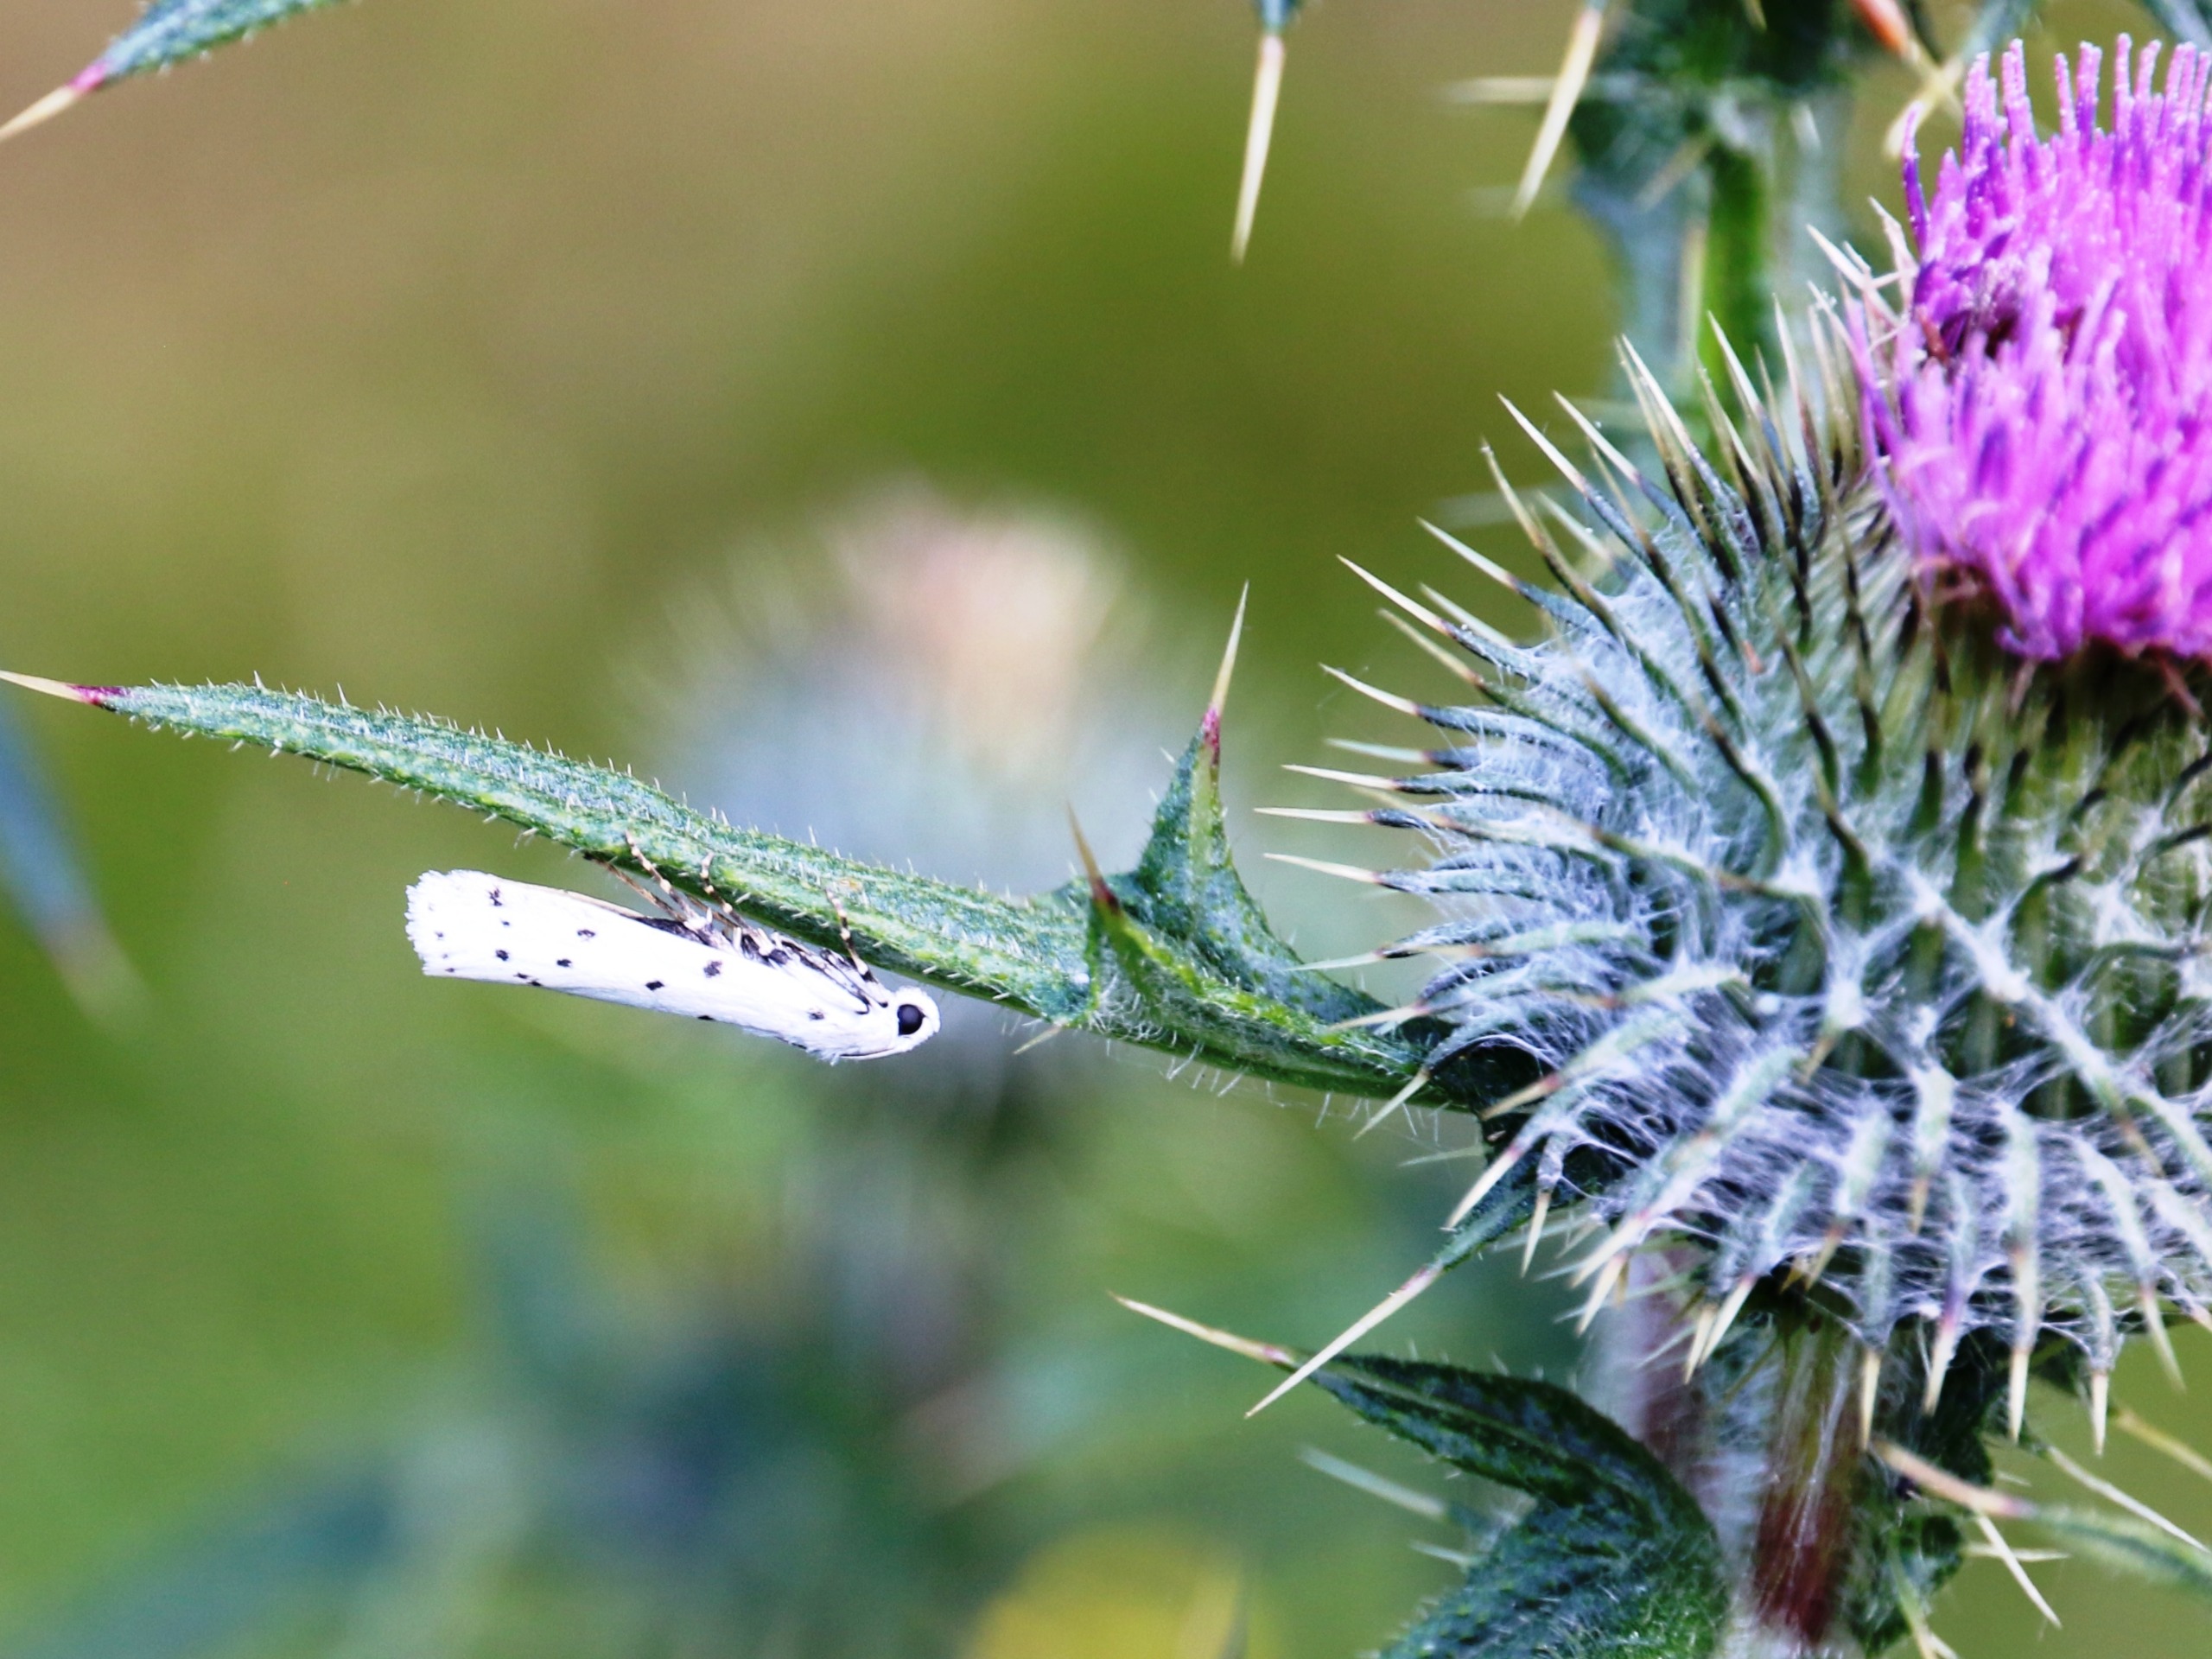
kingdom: Animalia
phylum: Arthropoda
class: Insecta
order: Lepidoptera
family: Pyralidae
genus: Myelois
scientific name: Myelois circumvoluta
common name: Æselfoderhalvmøl
